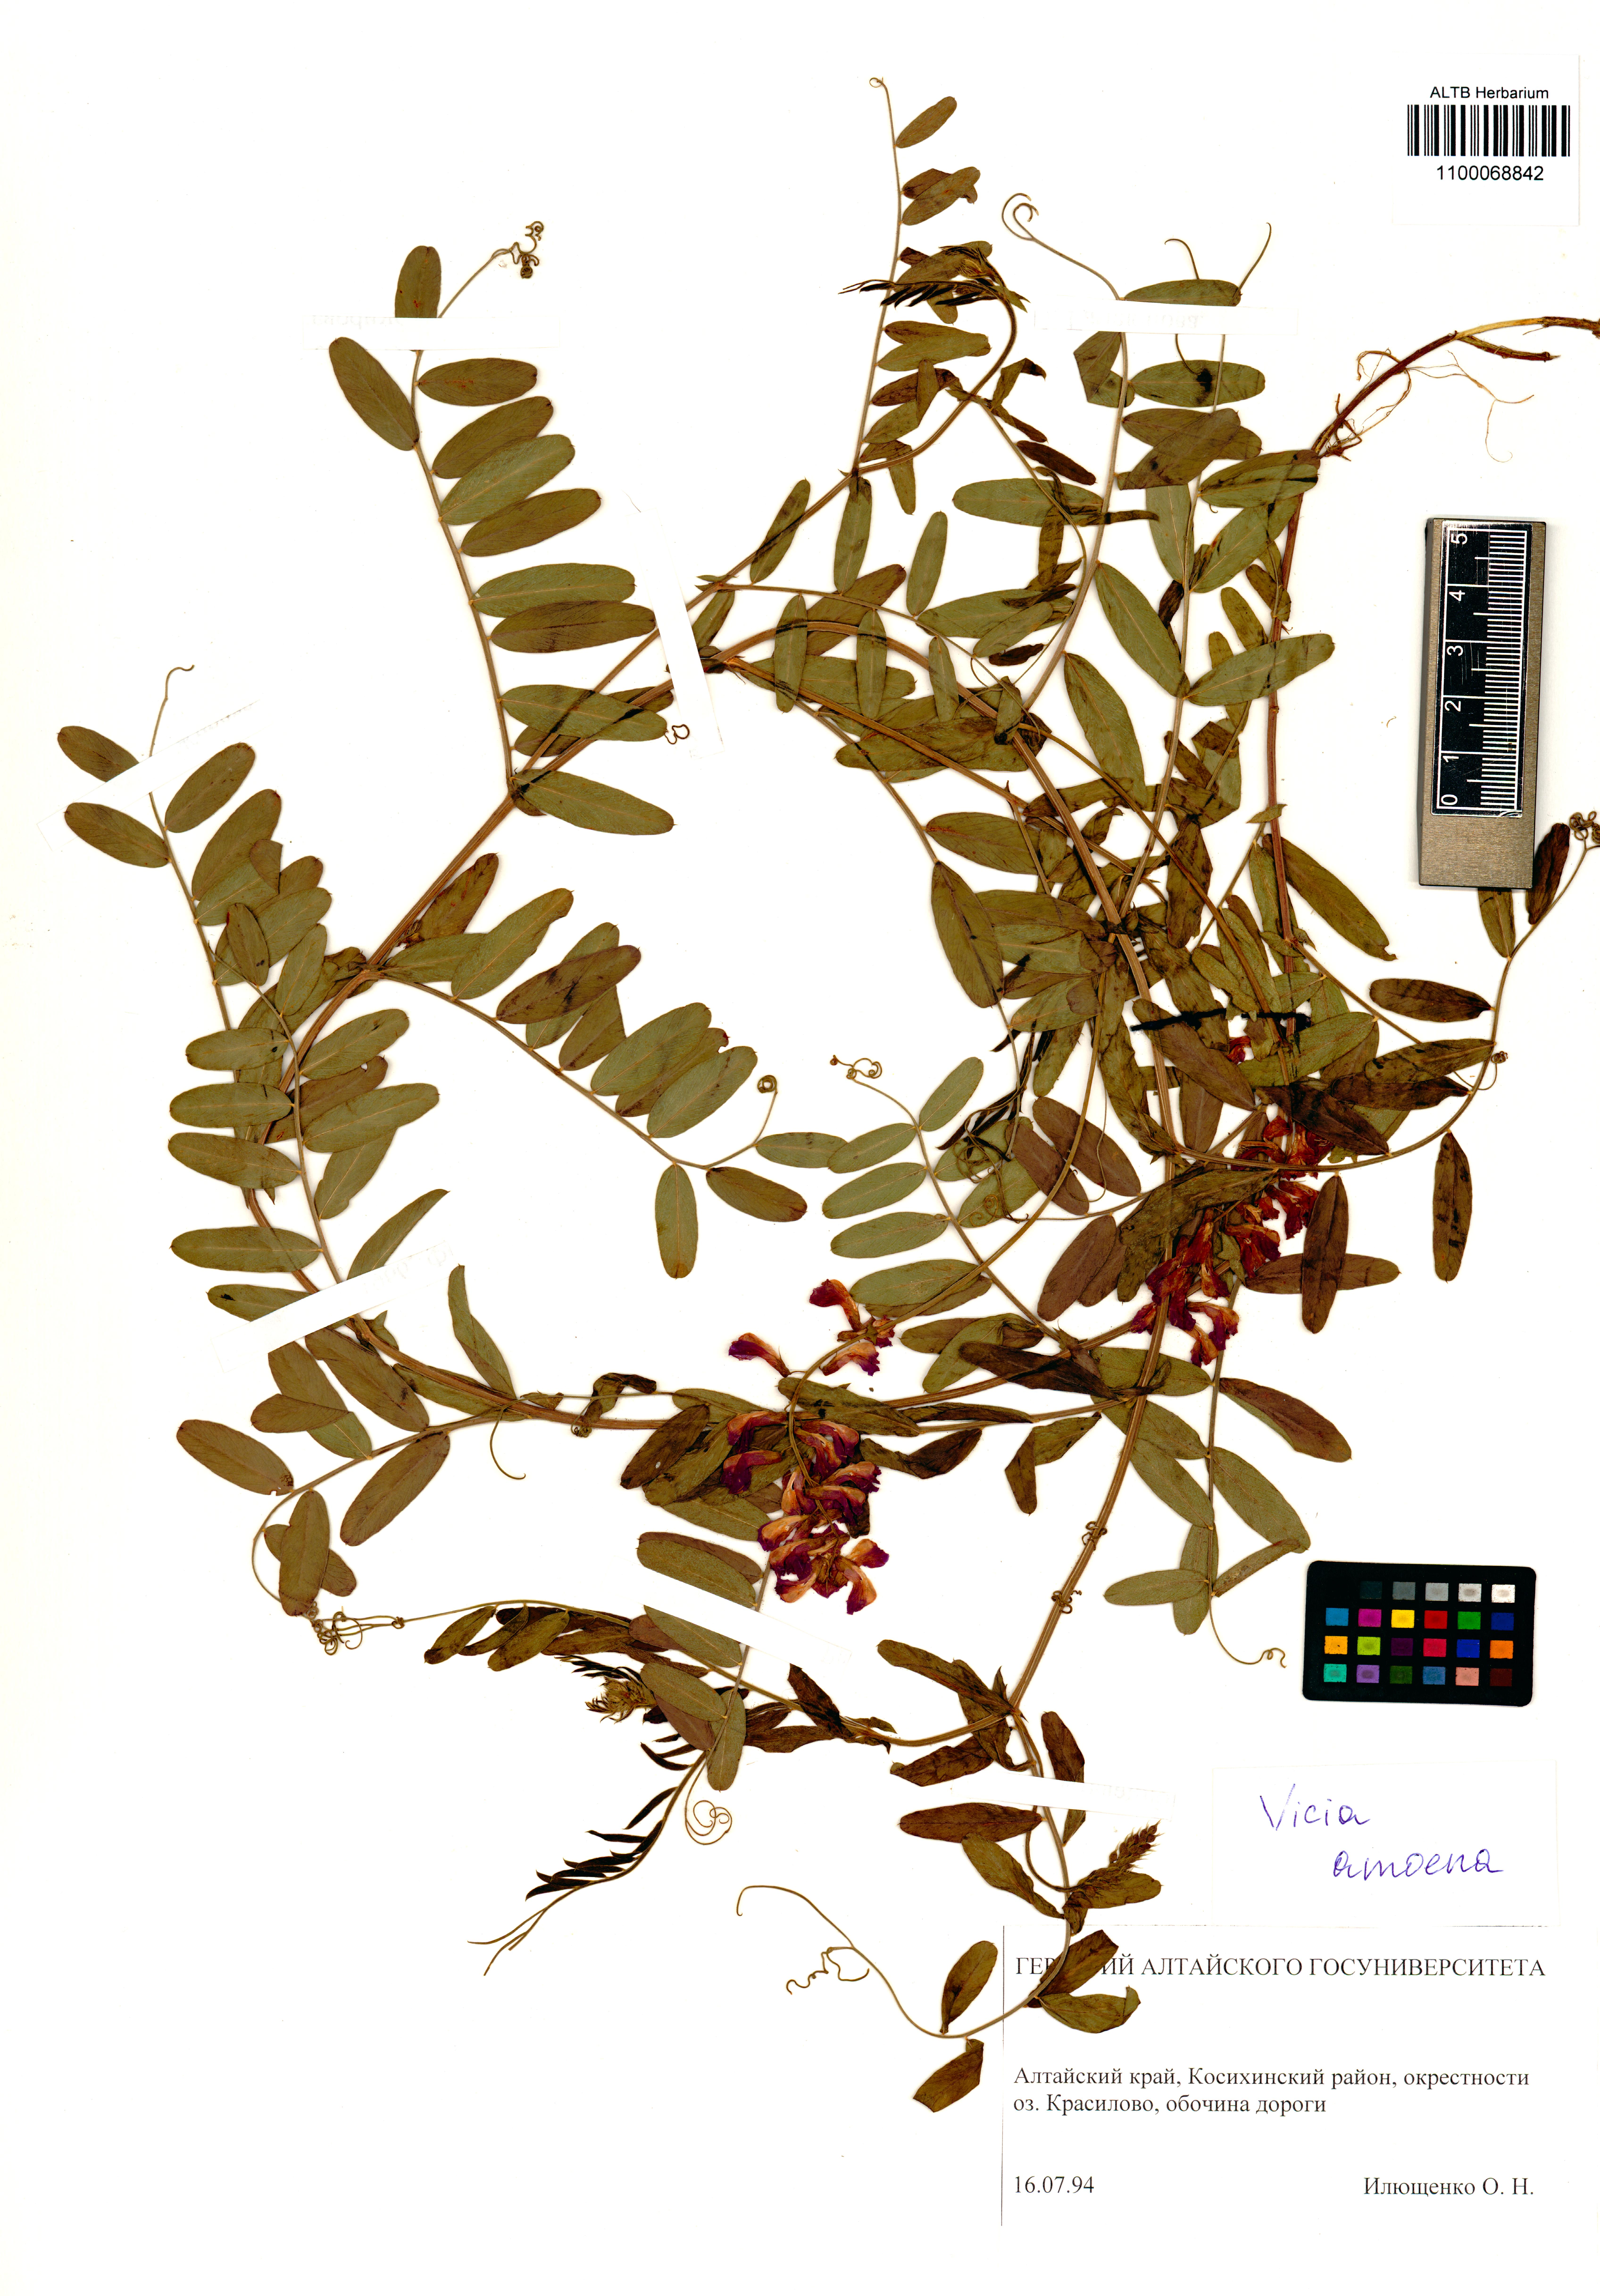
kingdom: Plantae
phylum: Tracheophyta
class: Magnoliopsida
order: Fabales
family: Fabaceae
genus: Vicia
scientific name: Vicia amoena
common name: Cheder ebs
